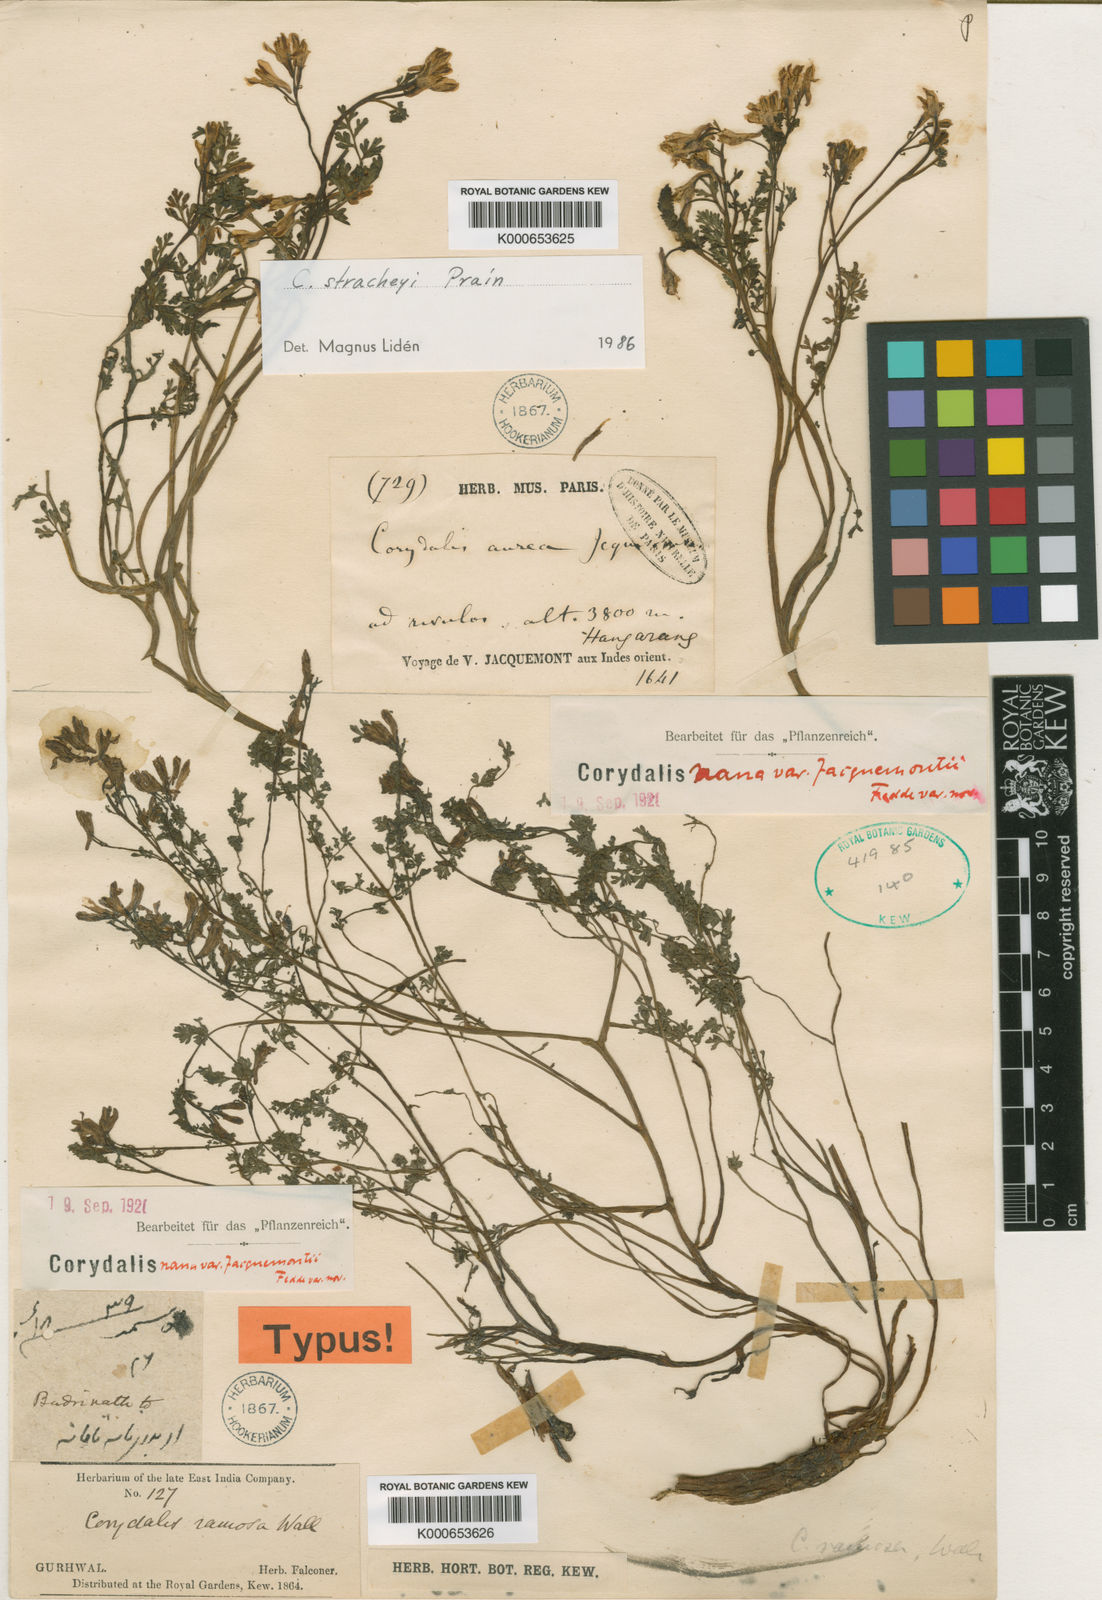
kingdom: Plantae
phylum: Tracheophyta
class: Magnoliopsida
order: Ranunculales
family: Papaveraceae
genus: Corydalis
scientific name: Corydalis nana
